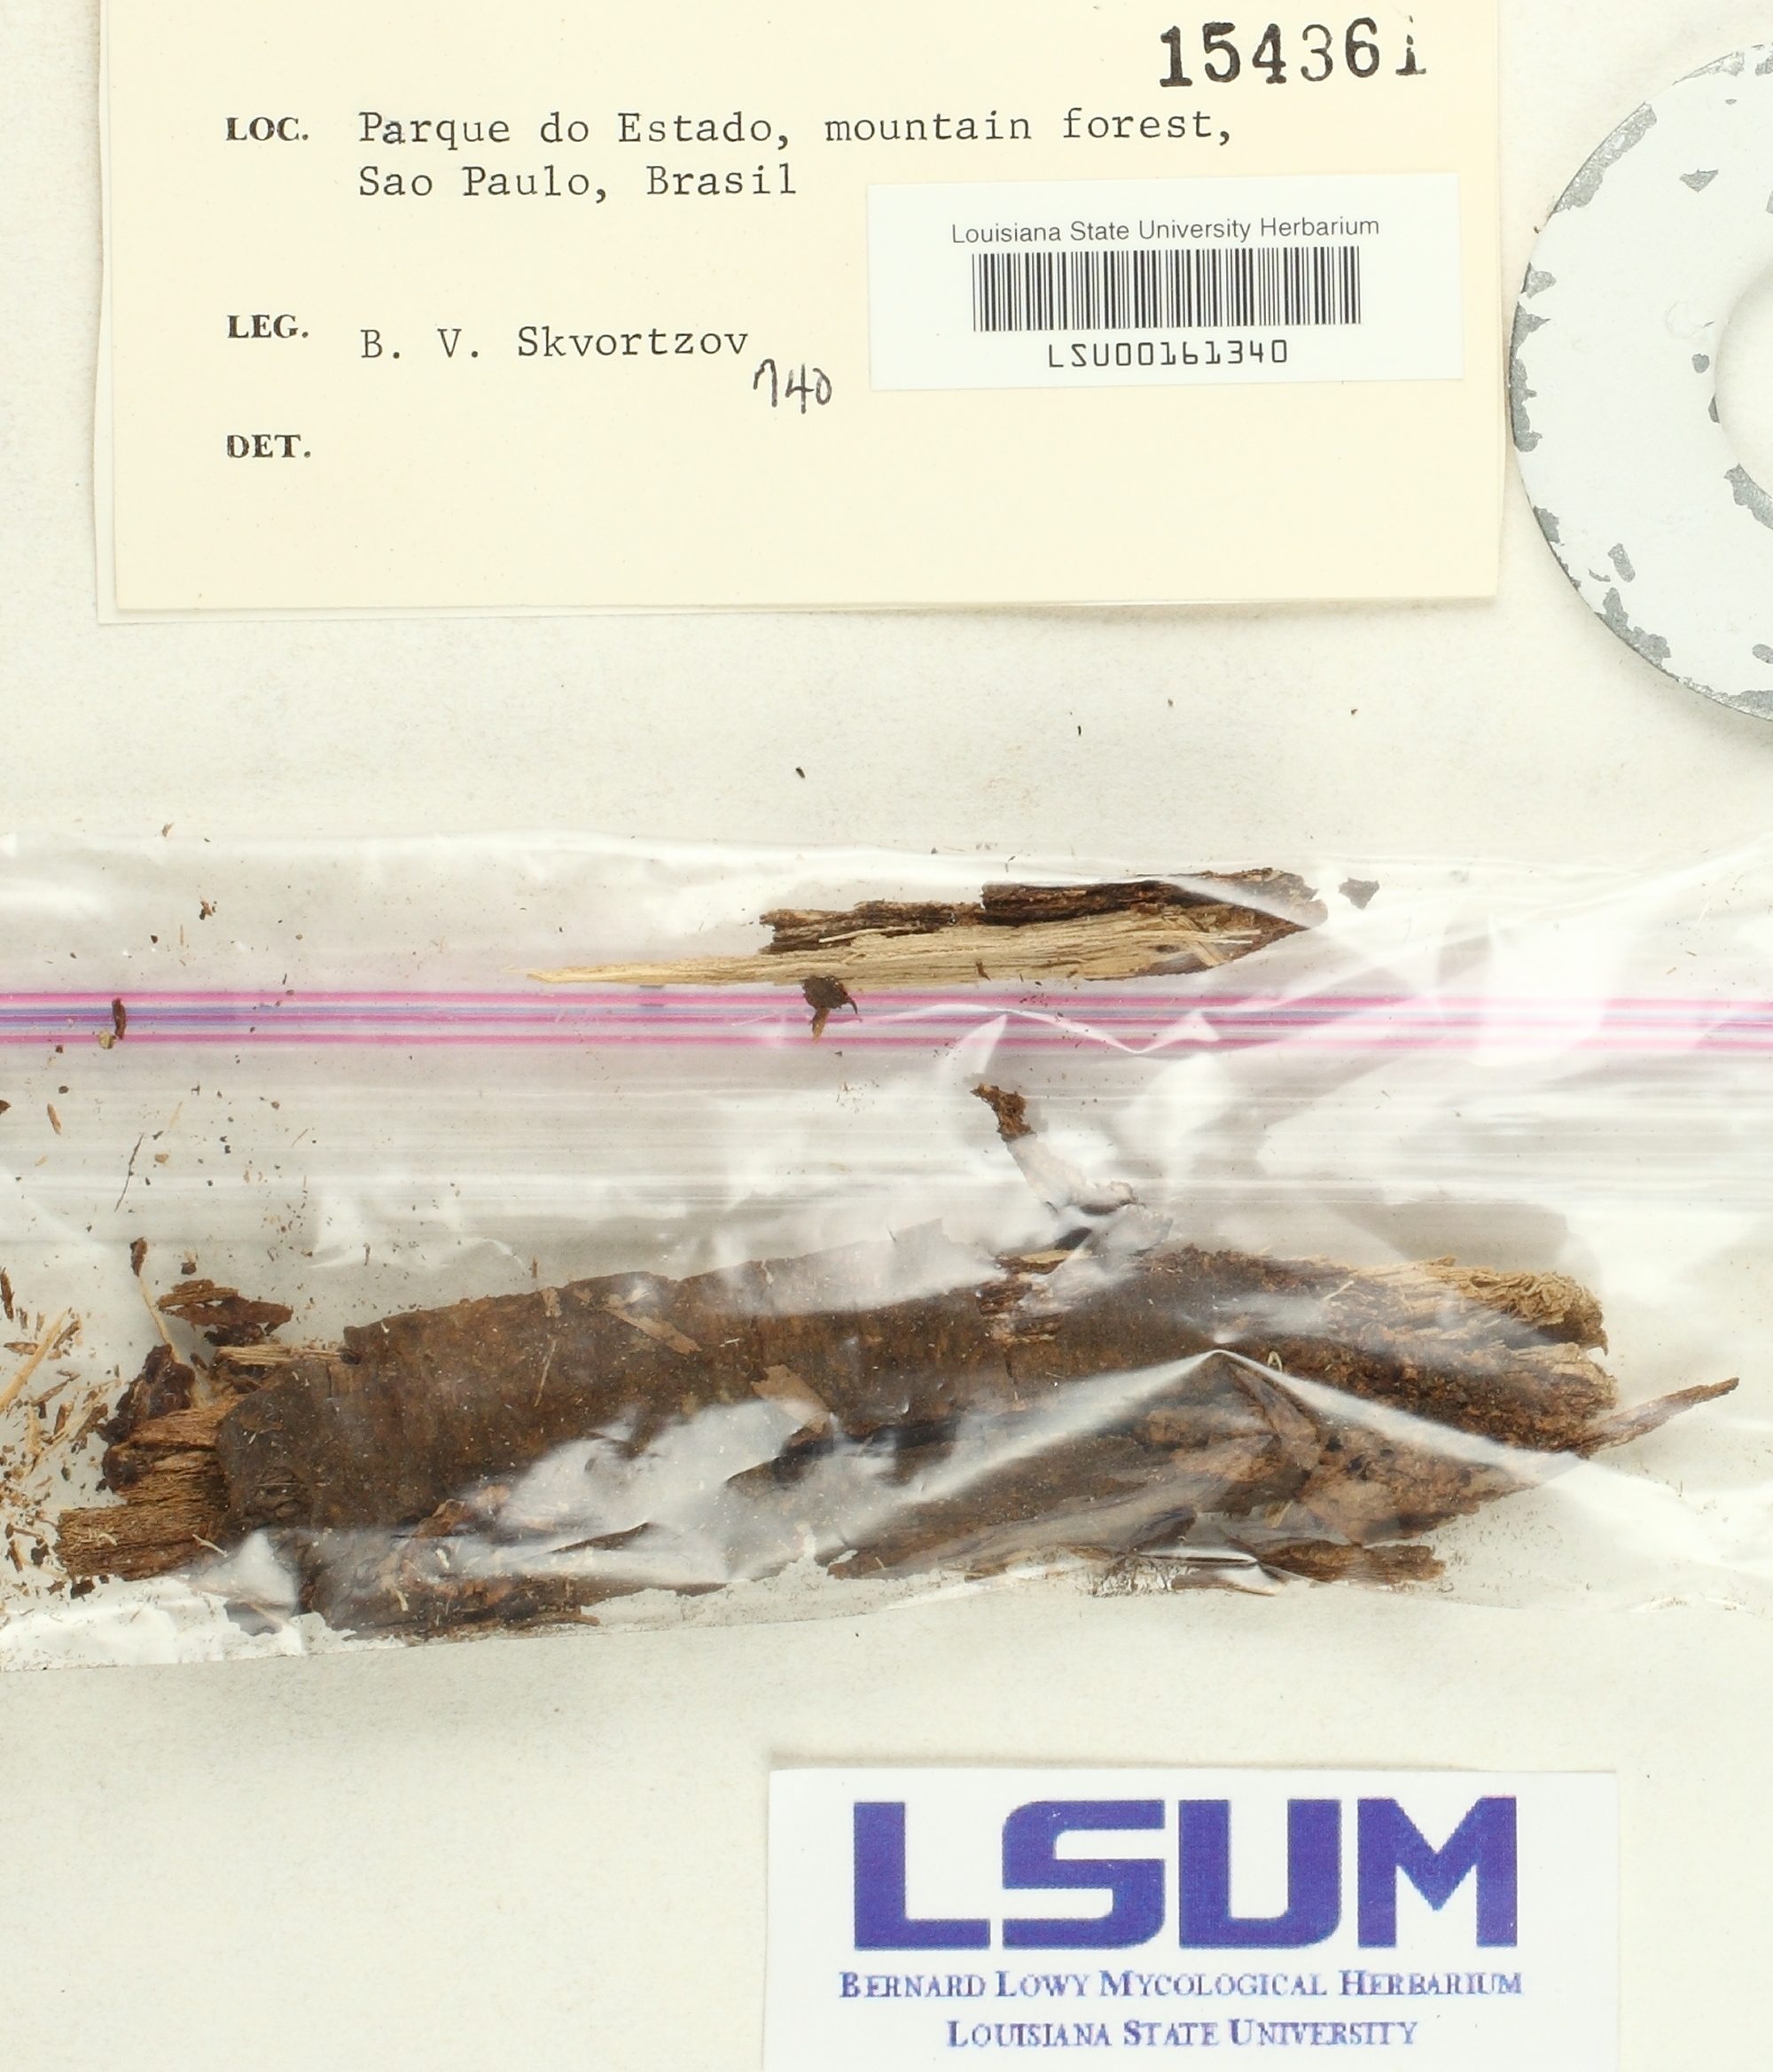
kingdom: Fungi
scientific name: Fungi
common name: Fungi
